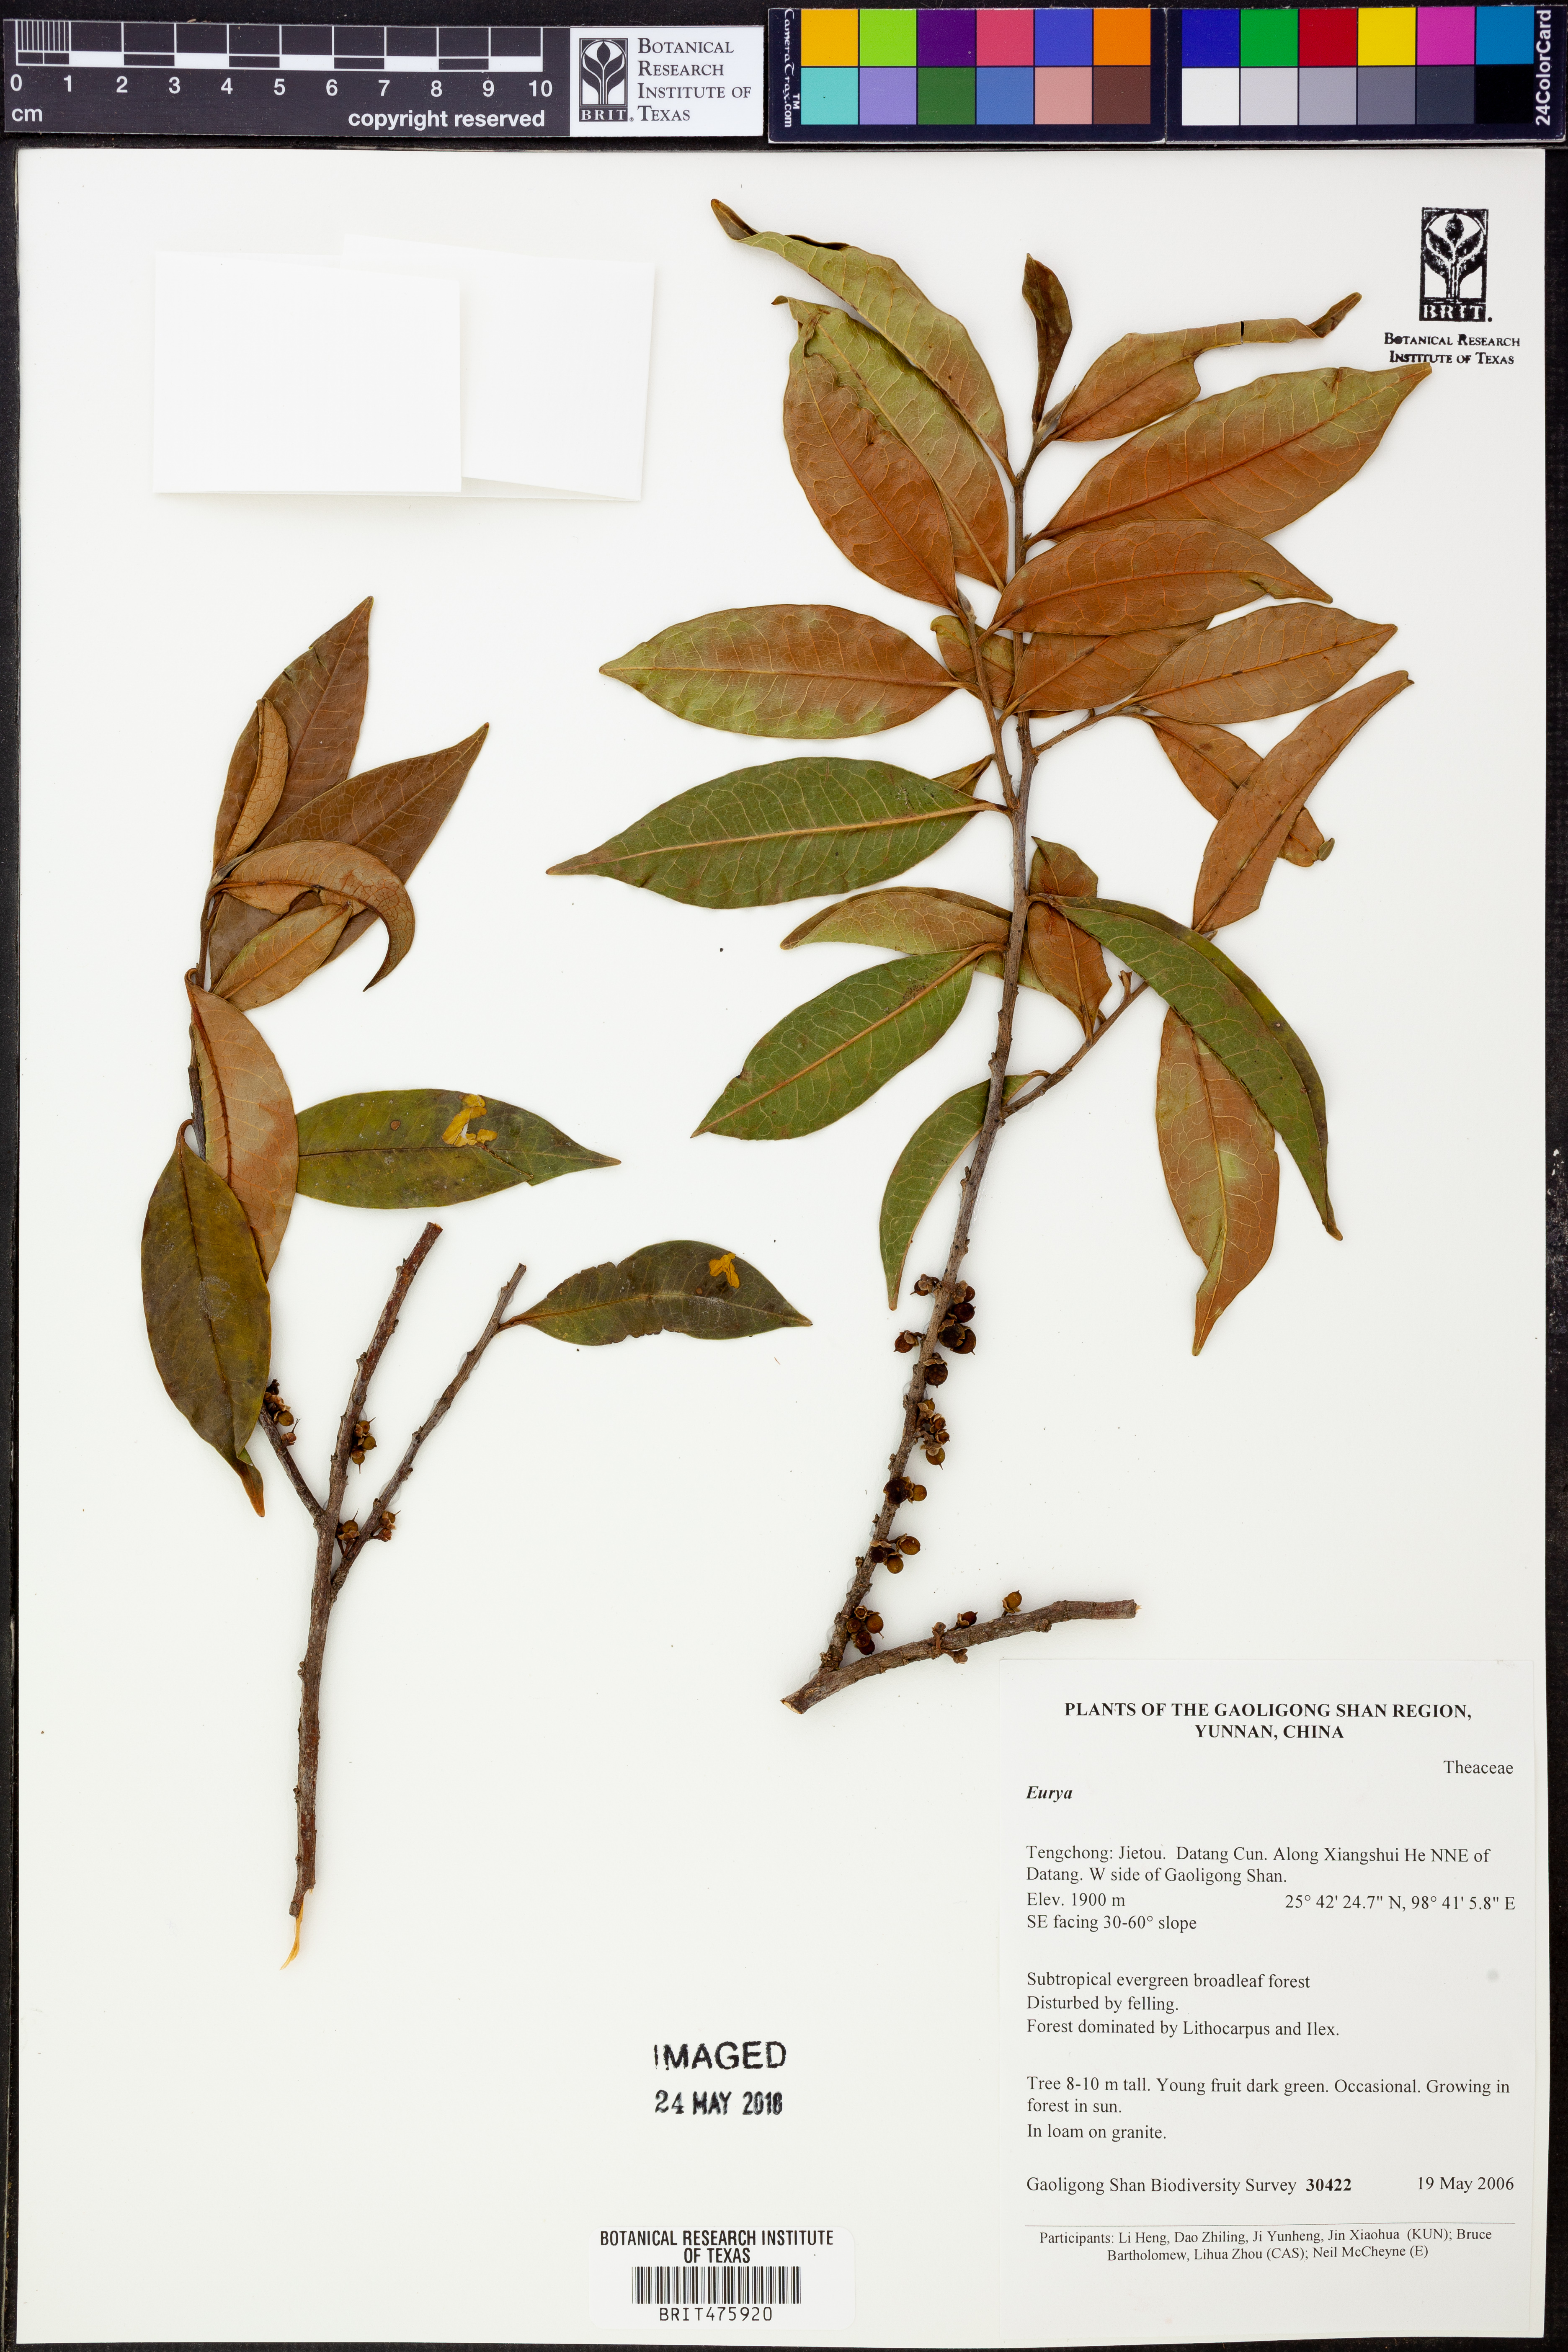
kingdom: Plantae
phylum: Tracheophyta
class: Magnoliopsida
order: Ericales
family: Pentaphylacaceae
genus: Eurya
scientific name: Eurya
